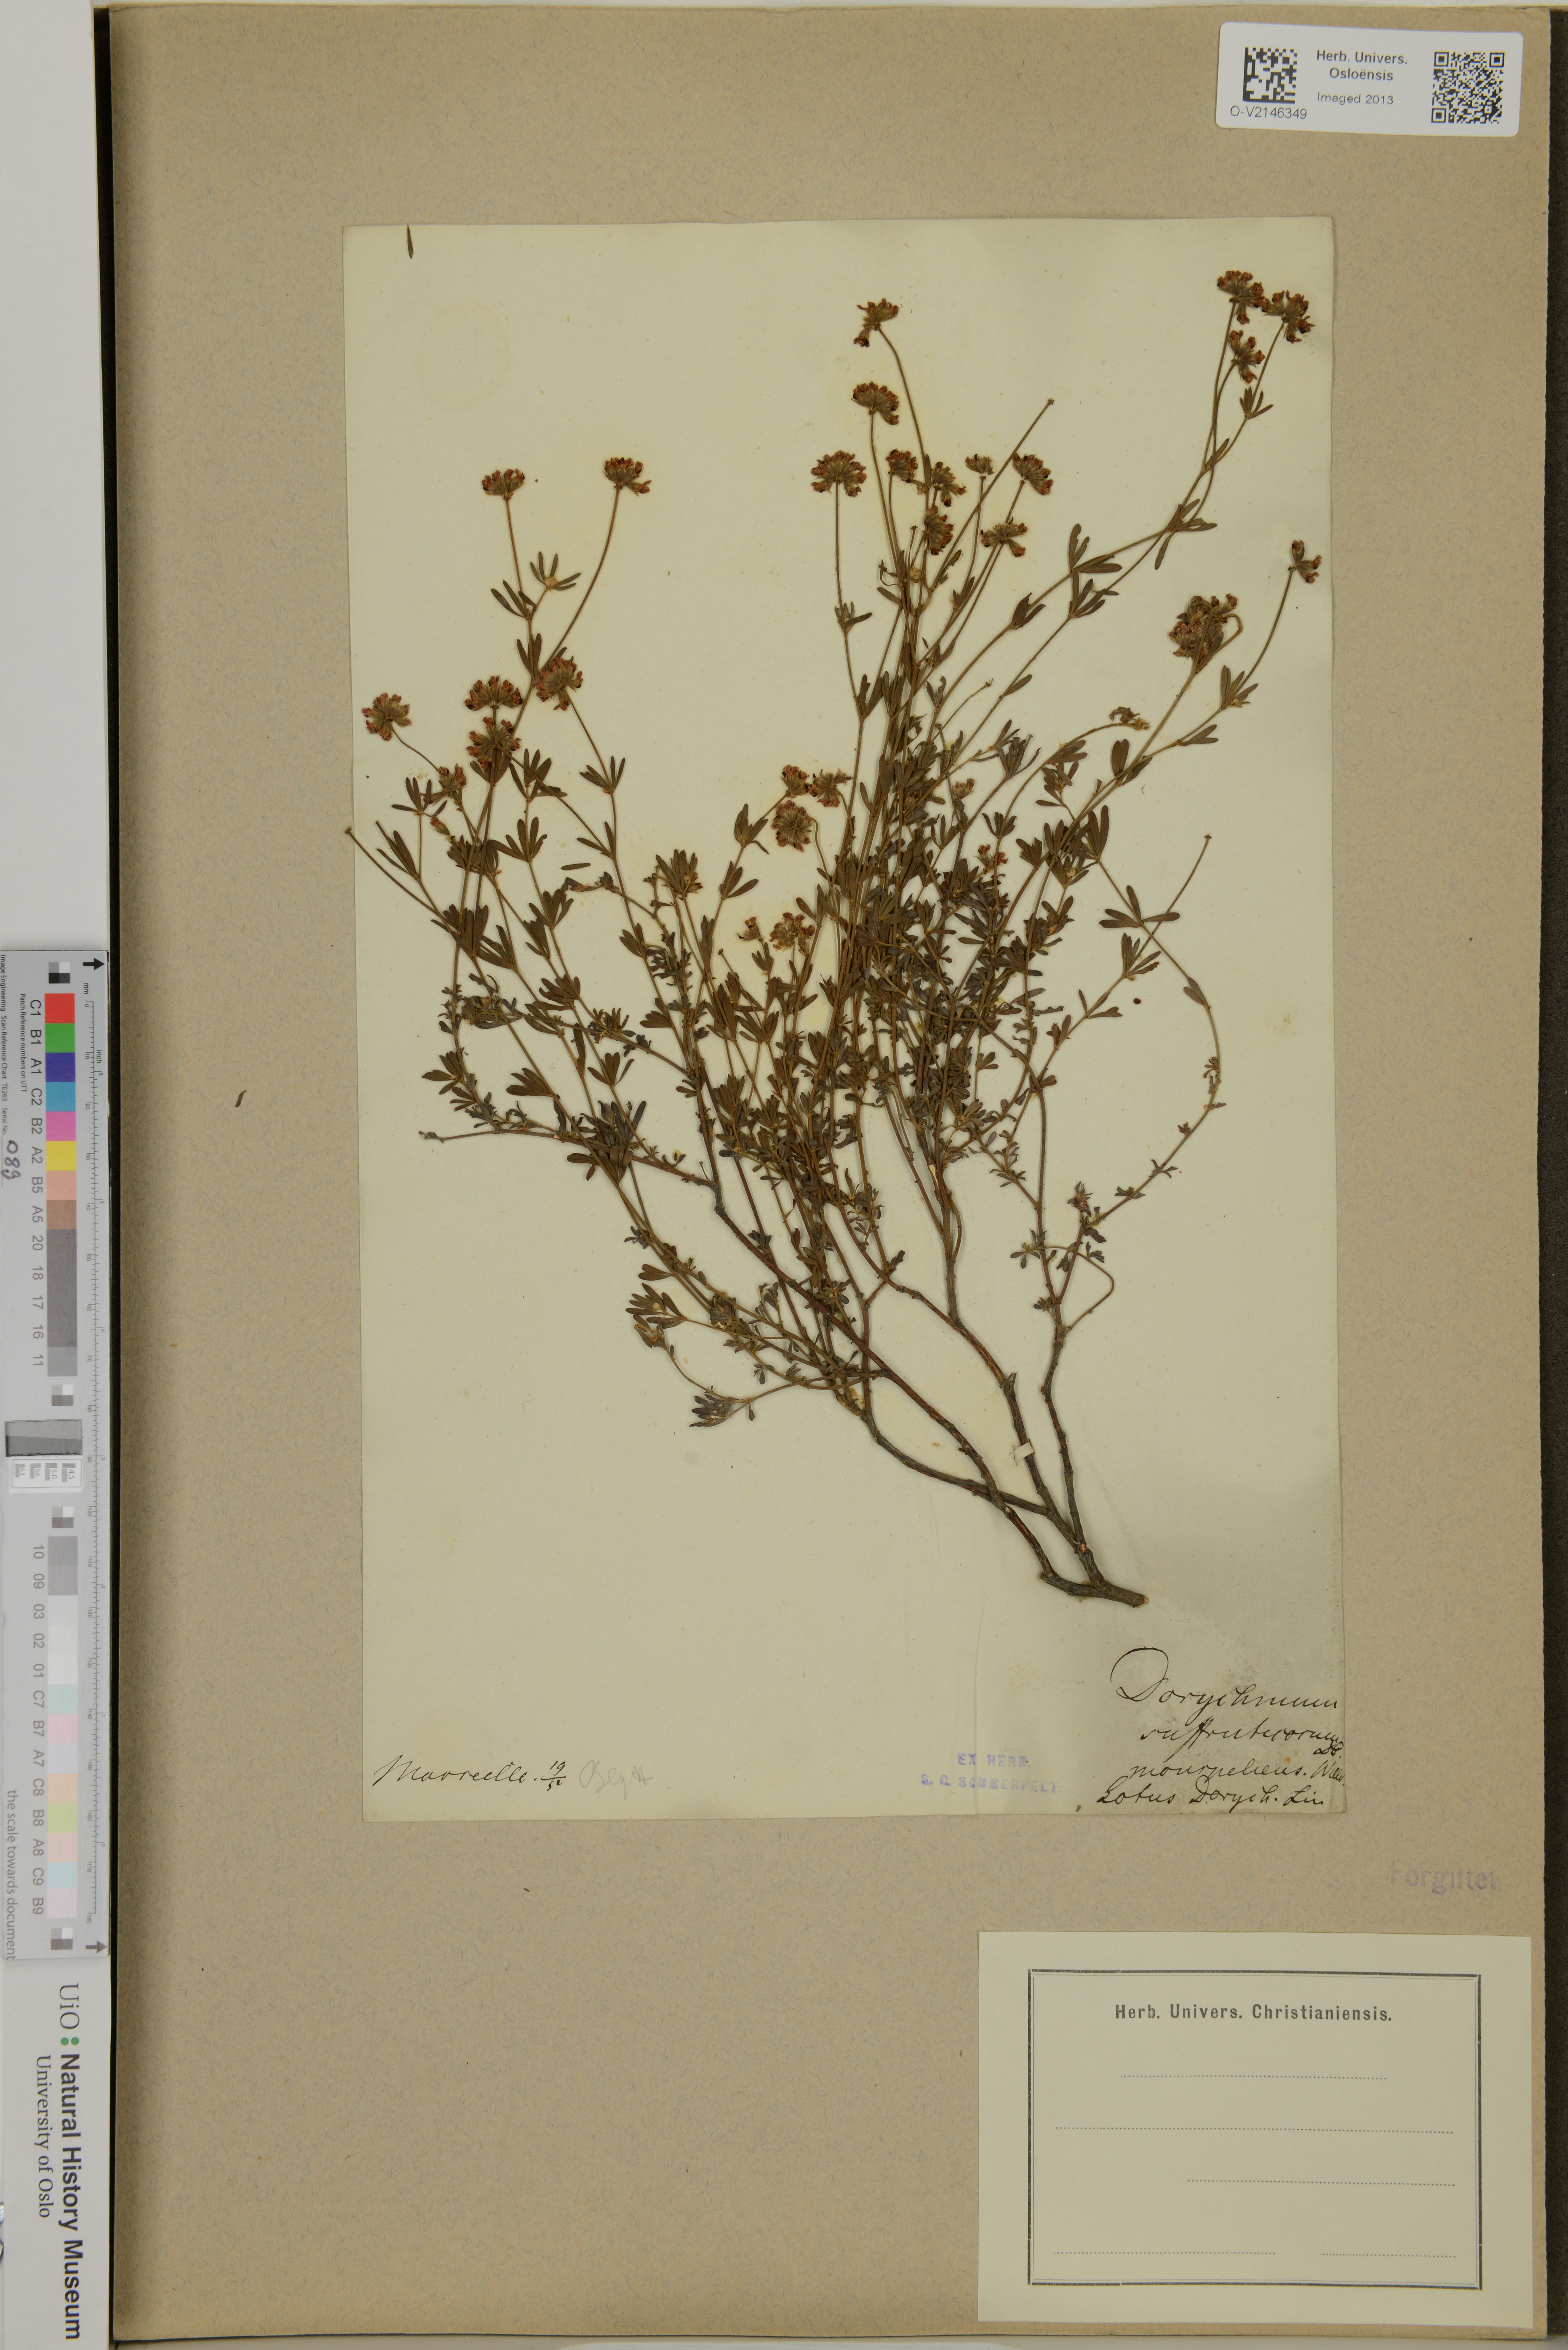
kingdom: Plantae
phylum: Tracheophyta
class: Magnoliopsida
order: Fabales
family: Fabaceae
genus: Lotus
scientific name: Lotus dorycnium
